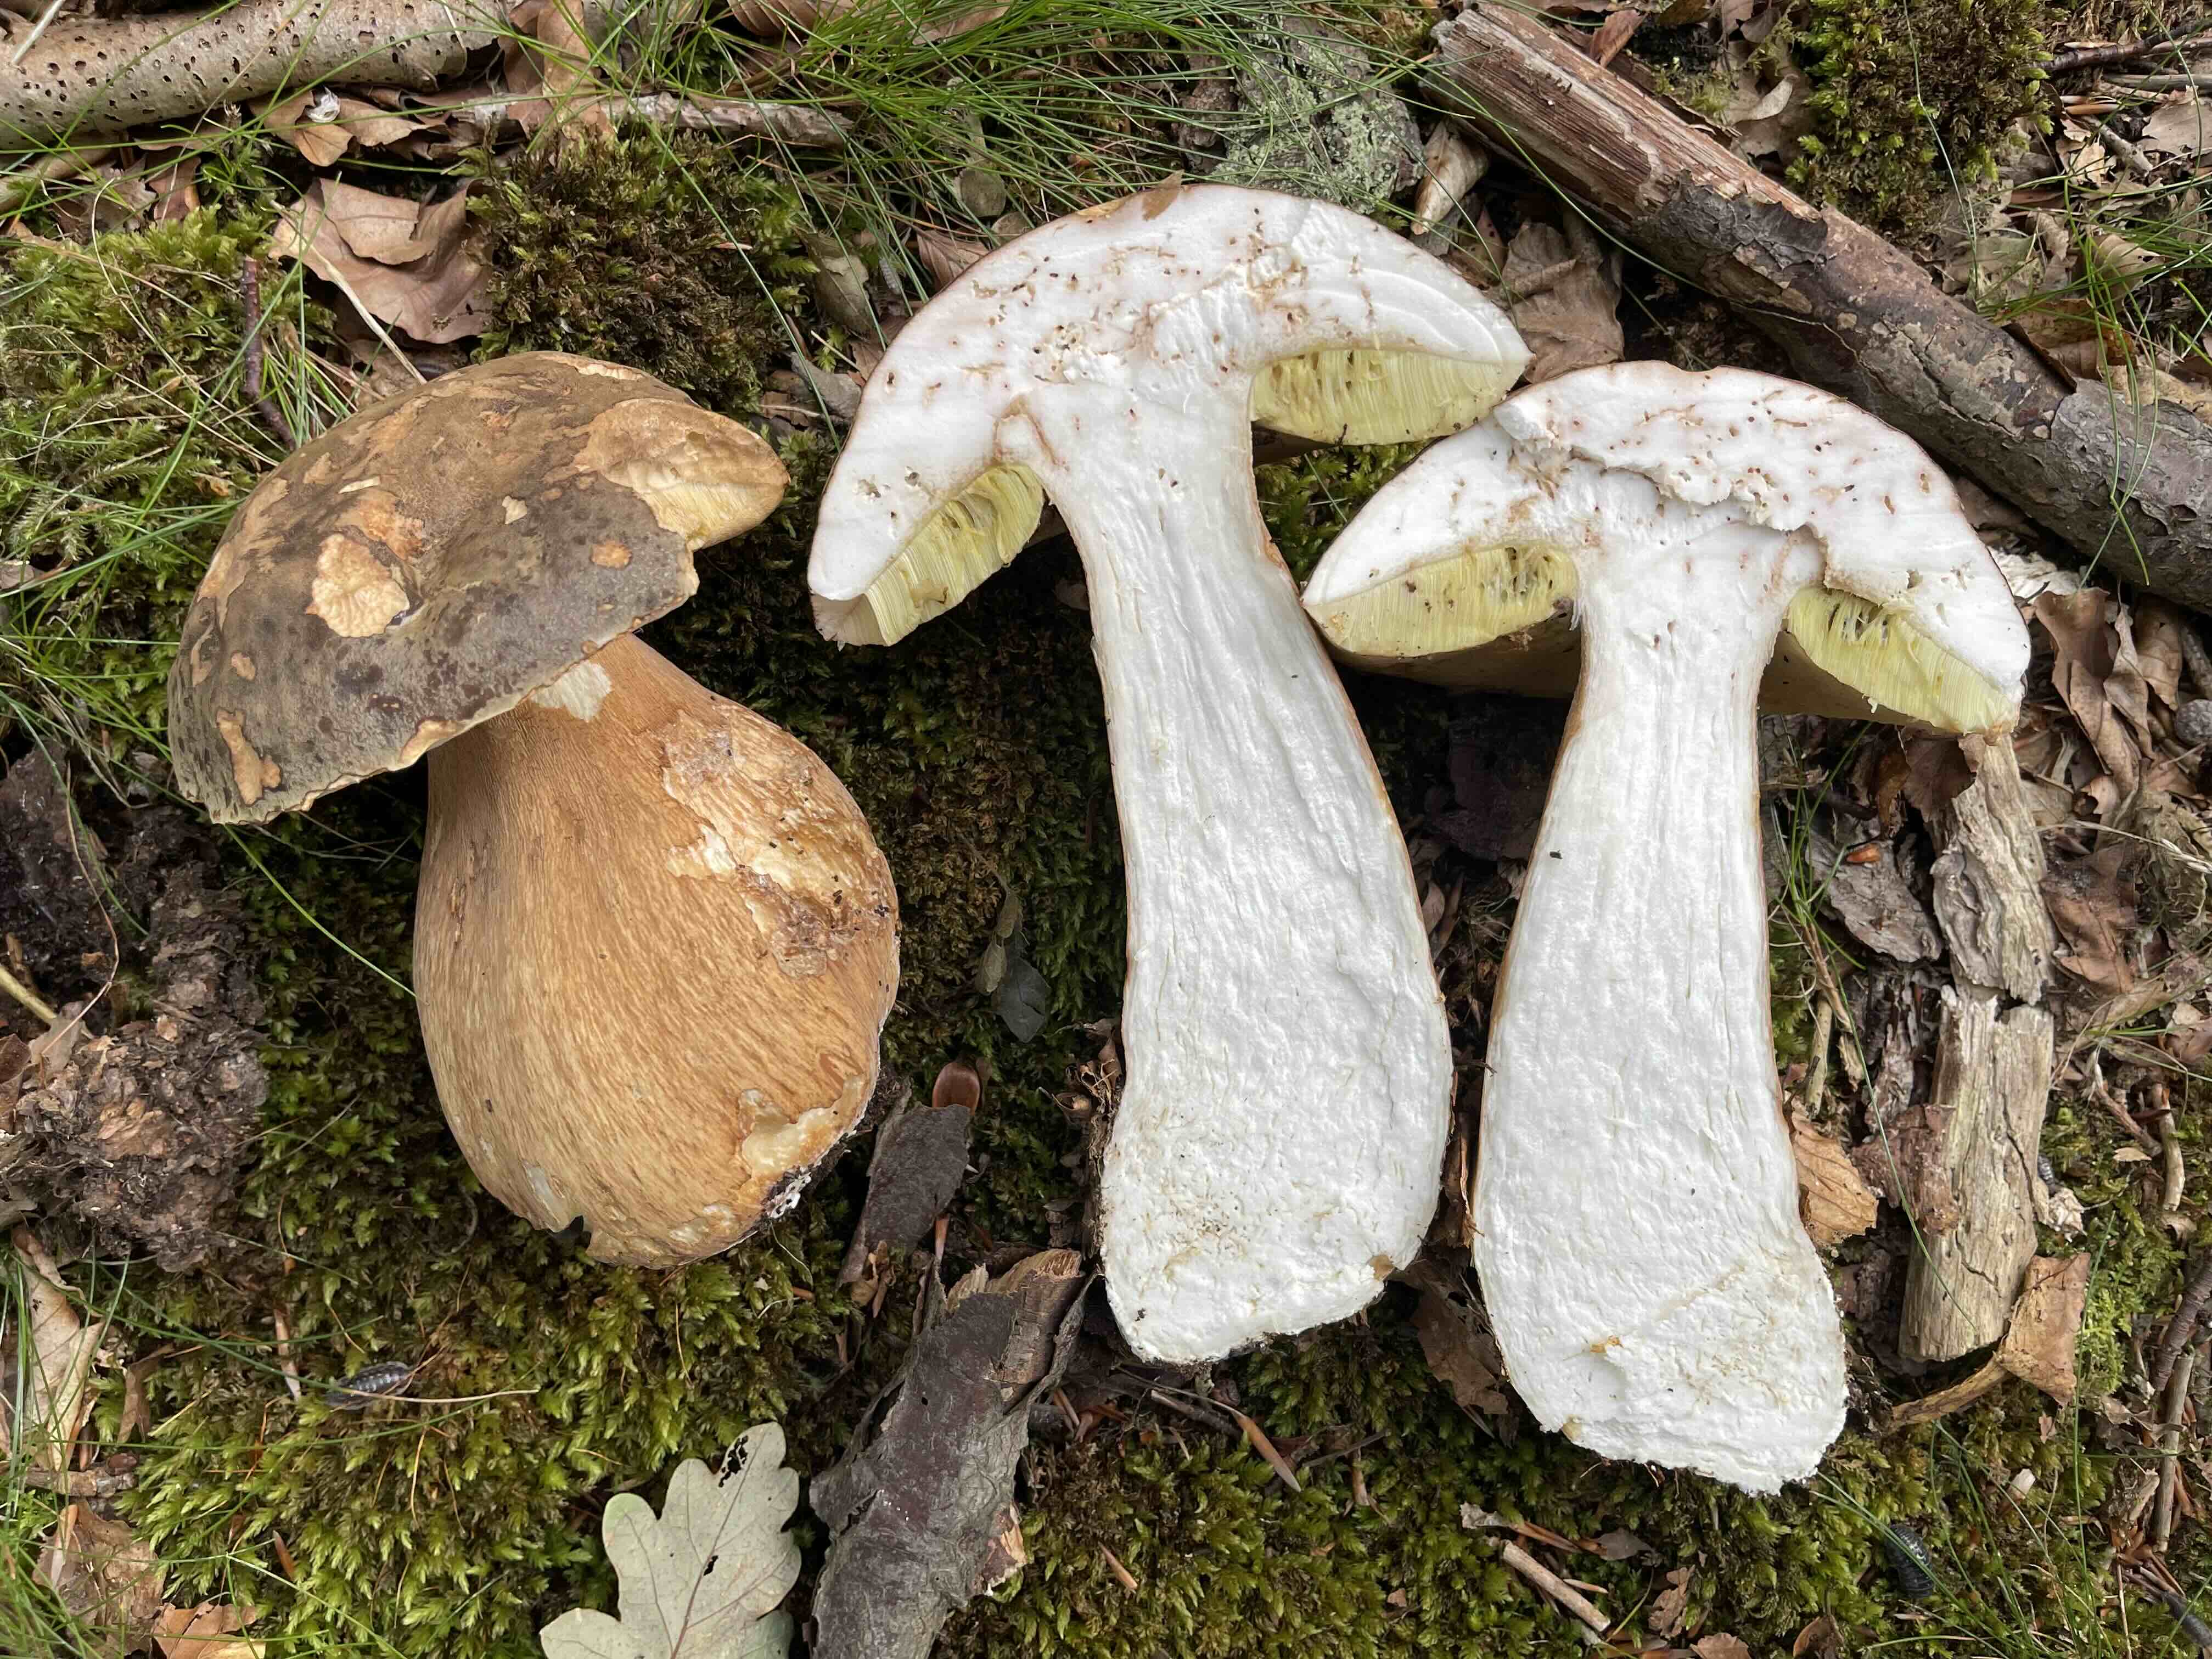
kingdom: Fungi
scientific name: Fungi
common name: bronze-rørhat
